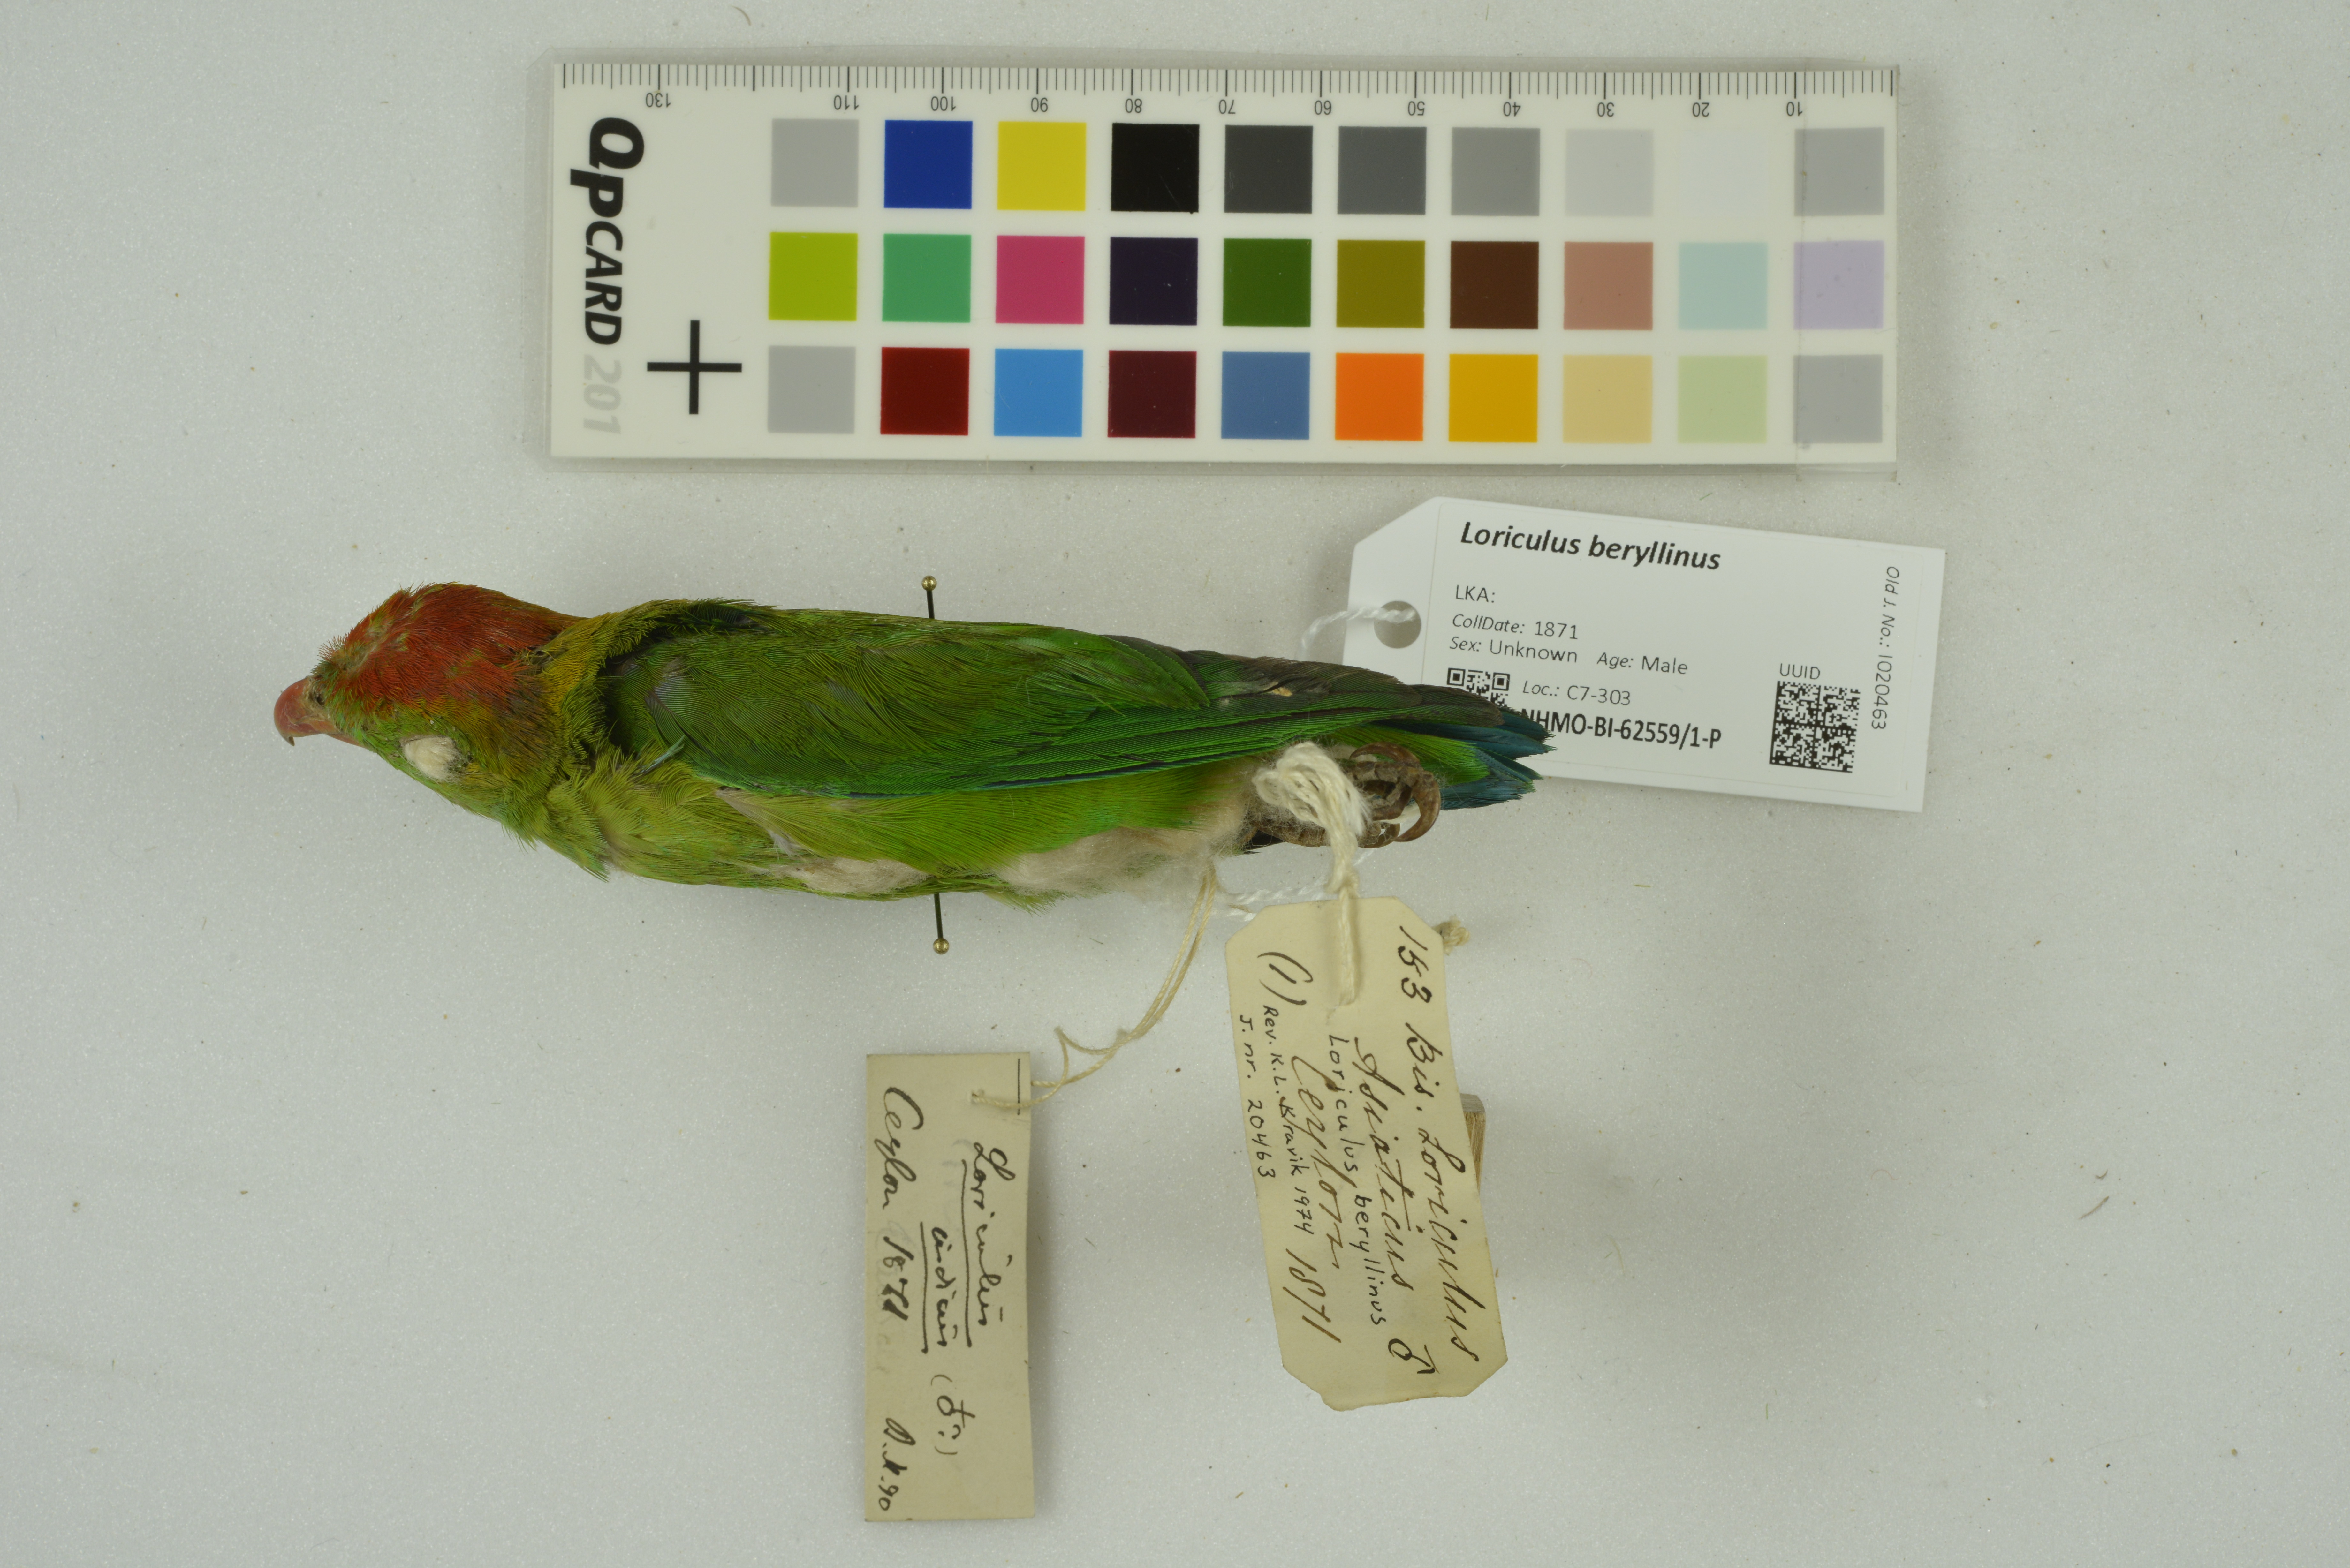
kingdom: Animalia
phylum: Chordata
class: Aves
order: Psittaciformes
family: Psittacidae
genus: Loriculus
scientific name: Loriculus beryllinus
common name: Sri lanka hanging parrot
